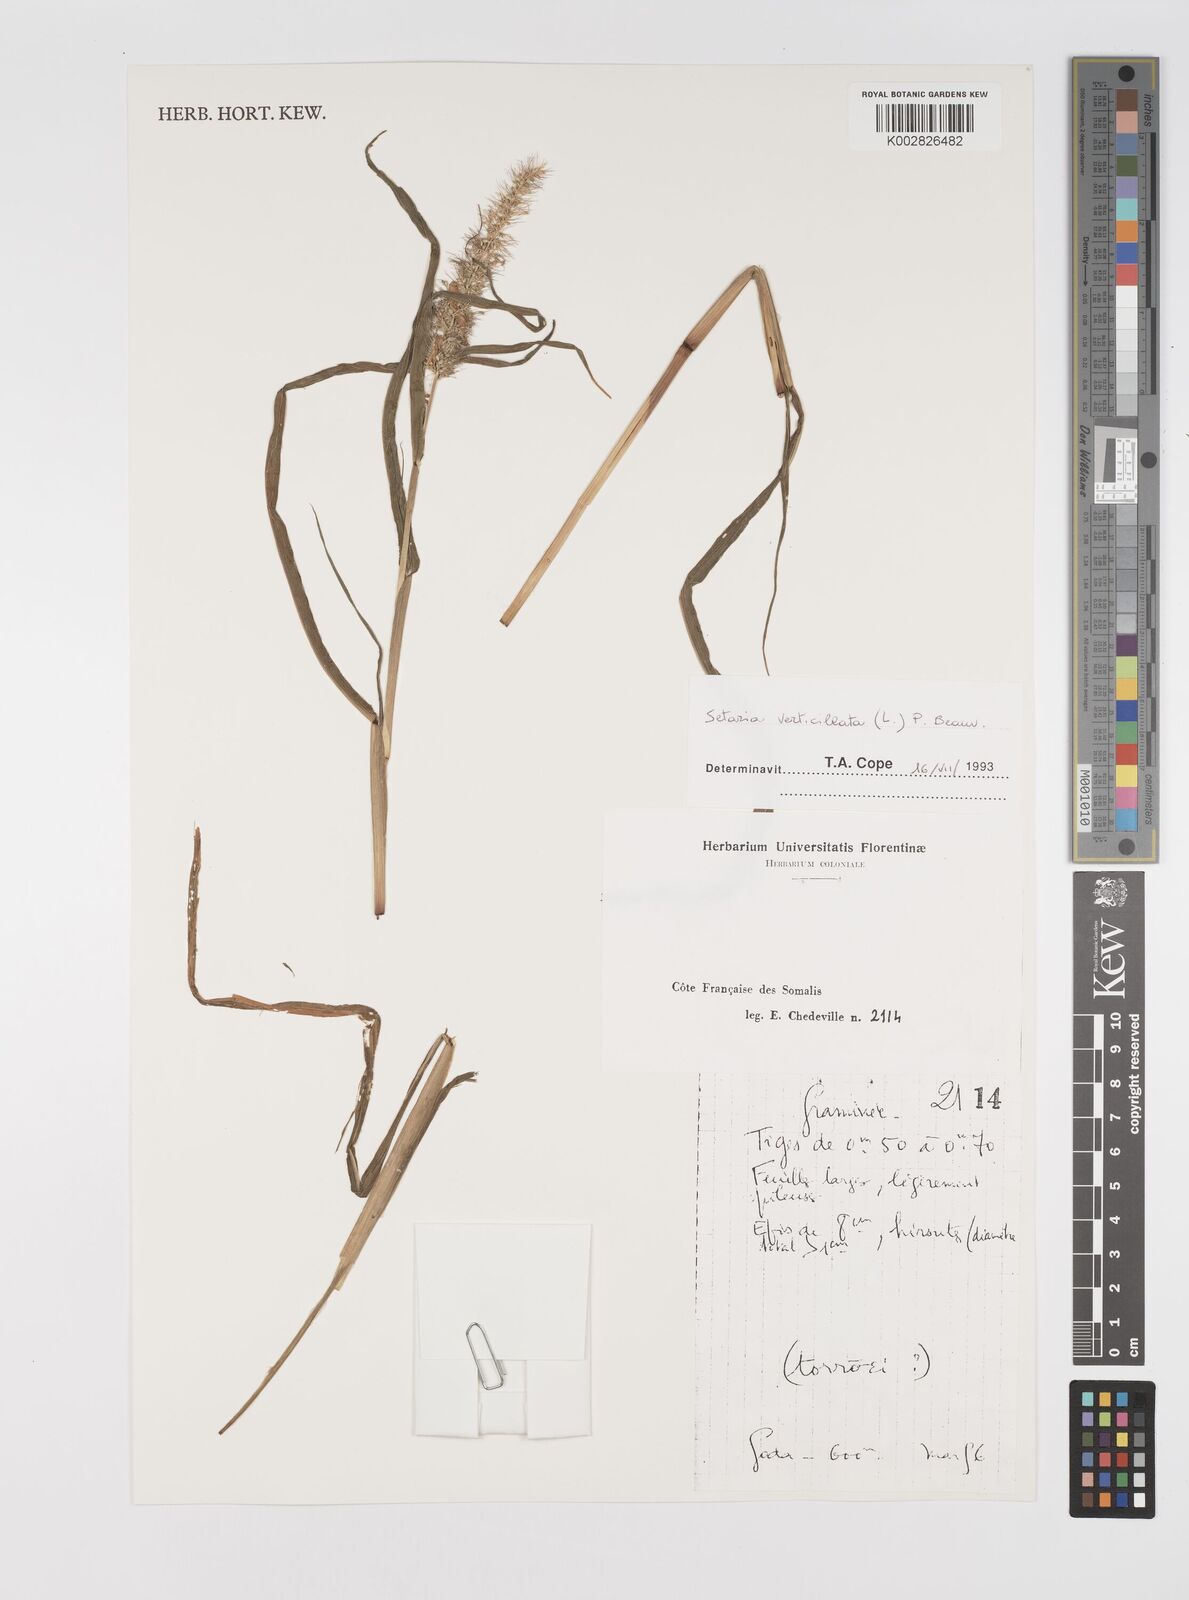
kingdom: Plantae
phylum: Tracheophyta
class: Liliopsida
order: Poales
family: Poaceae
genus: Setaria
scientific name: Setaria verticillata
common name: Hooked bristlegrass
